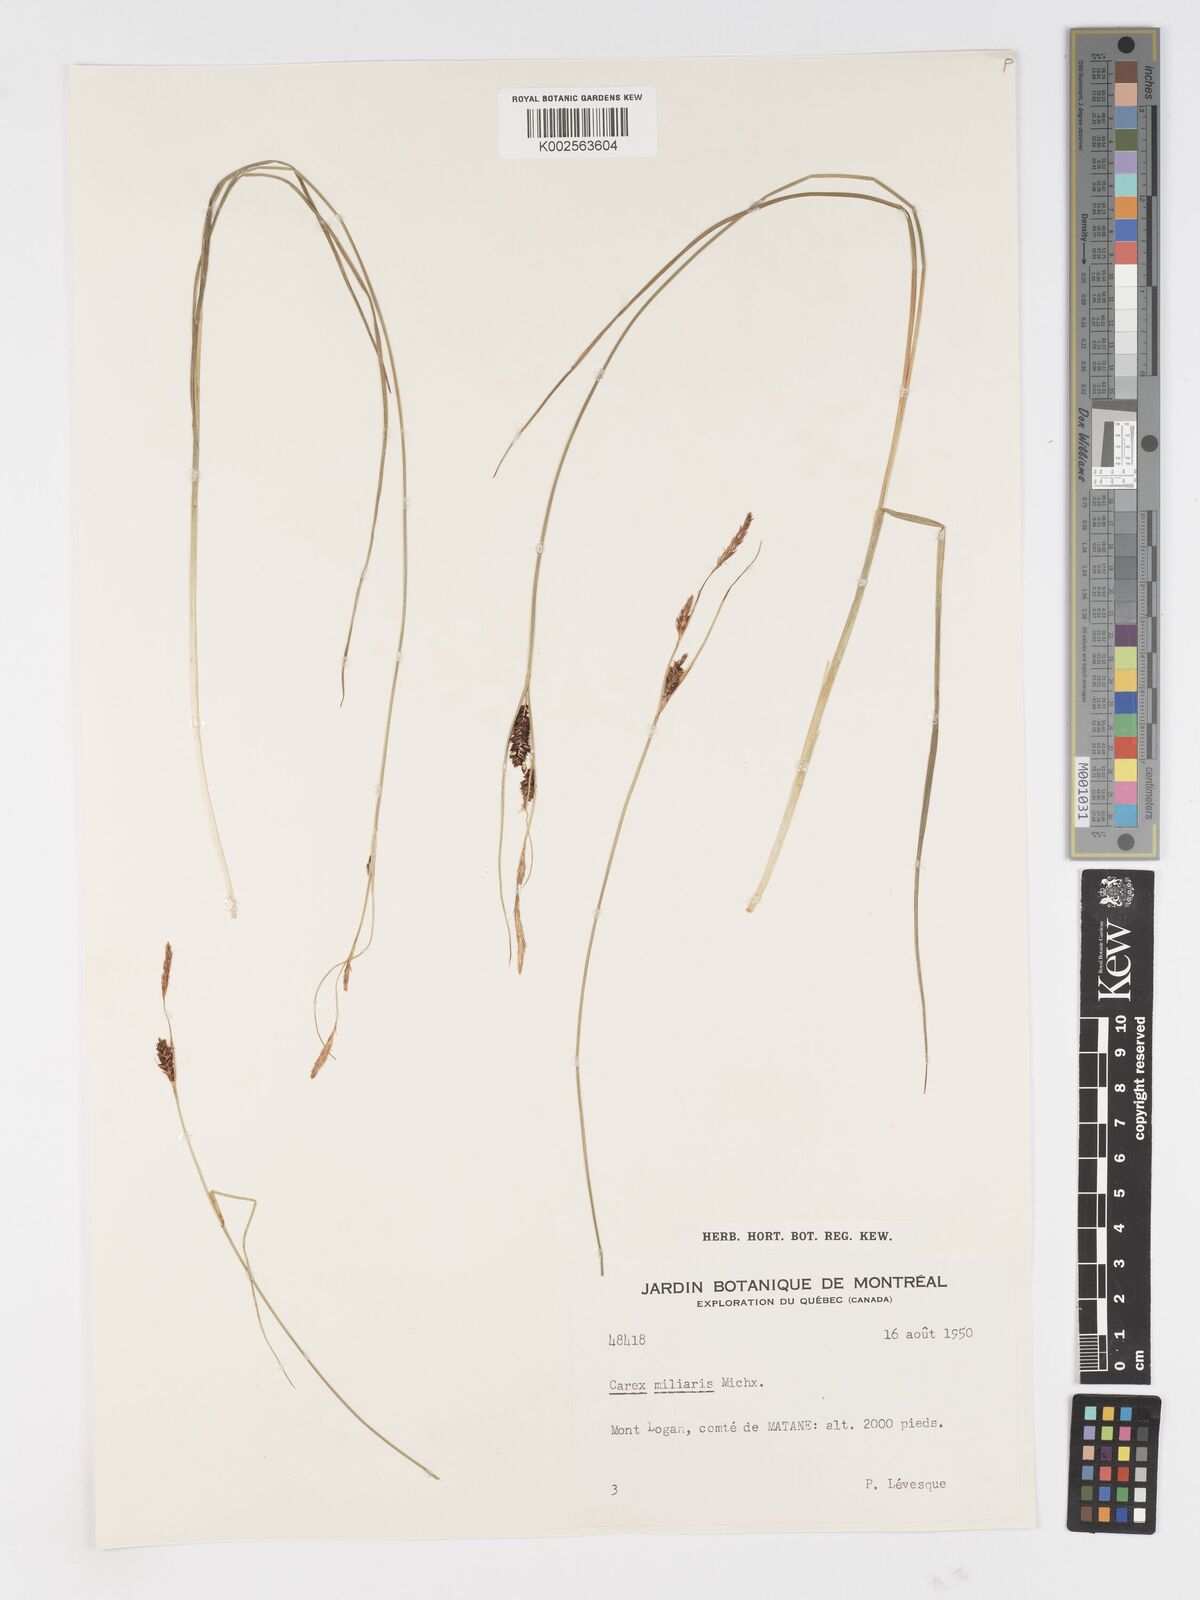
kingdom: Plantae
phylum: Tracheophyta
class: Liliopsida
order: Poales
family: Cyperaceae
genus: Carex
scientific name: Carex miliaris
